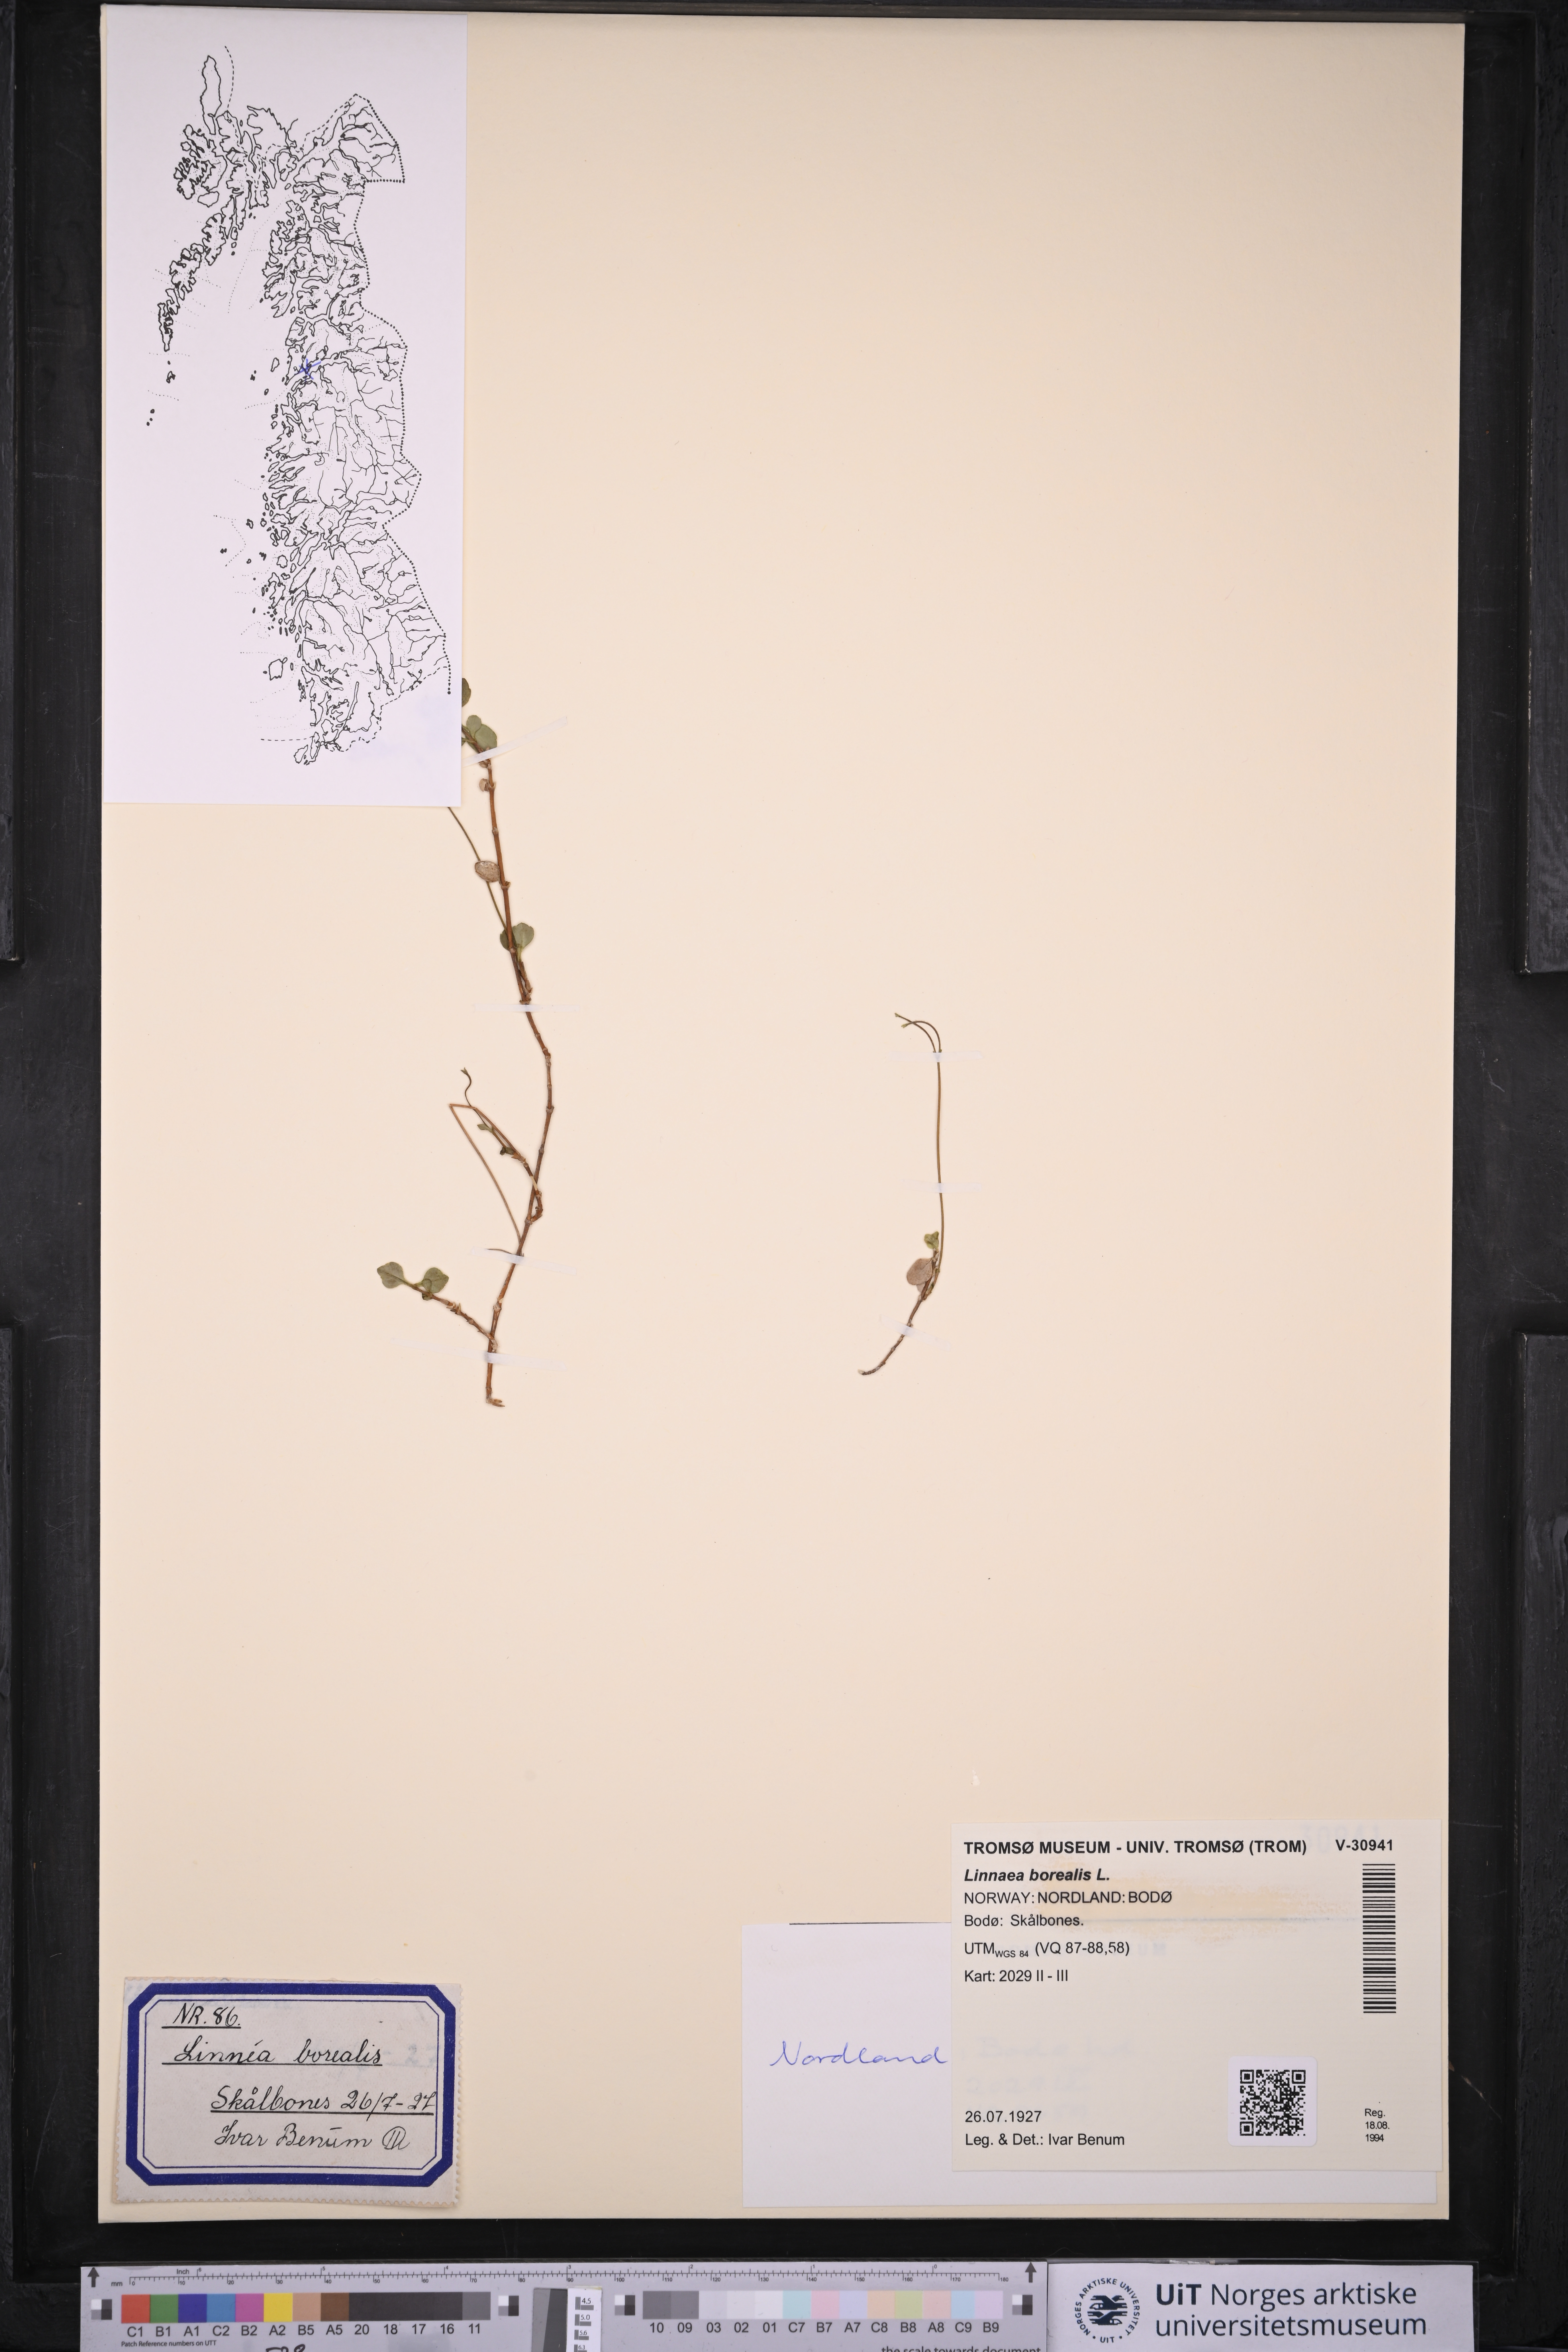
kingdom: Plantae
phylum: Tracheophyta
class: Magnoliopsida
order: Dipsacales
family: Caprifoliaceae
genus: Linnaea
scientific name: Linnaea borealis
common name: Twinflower
